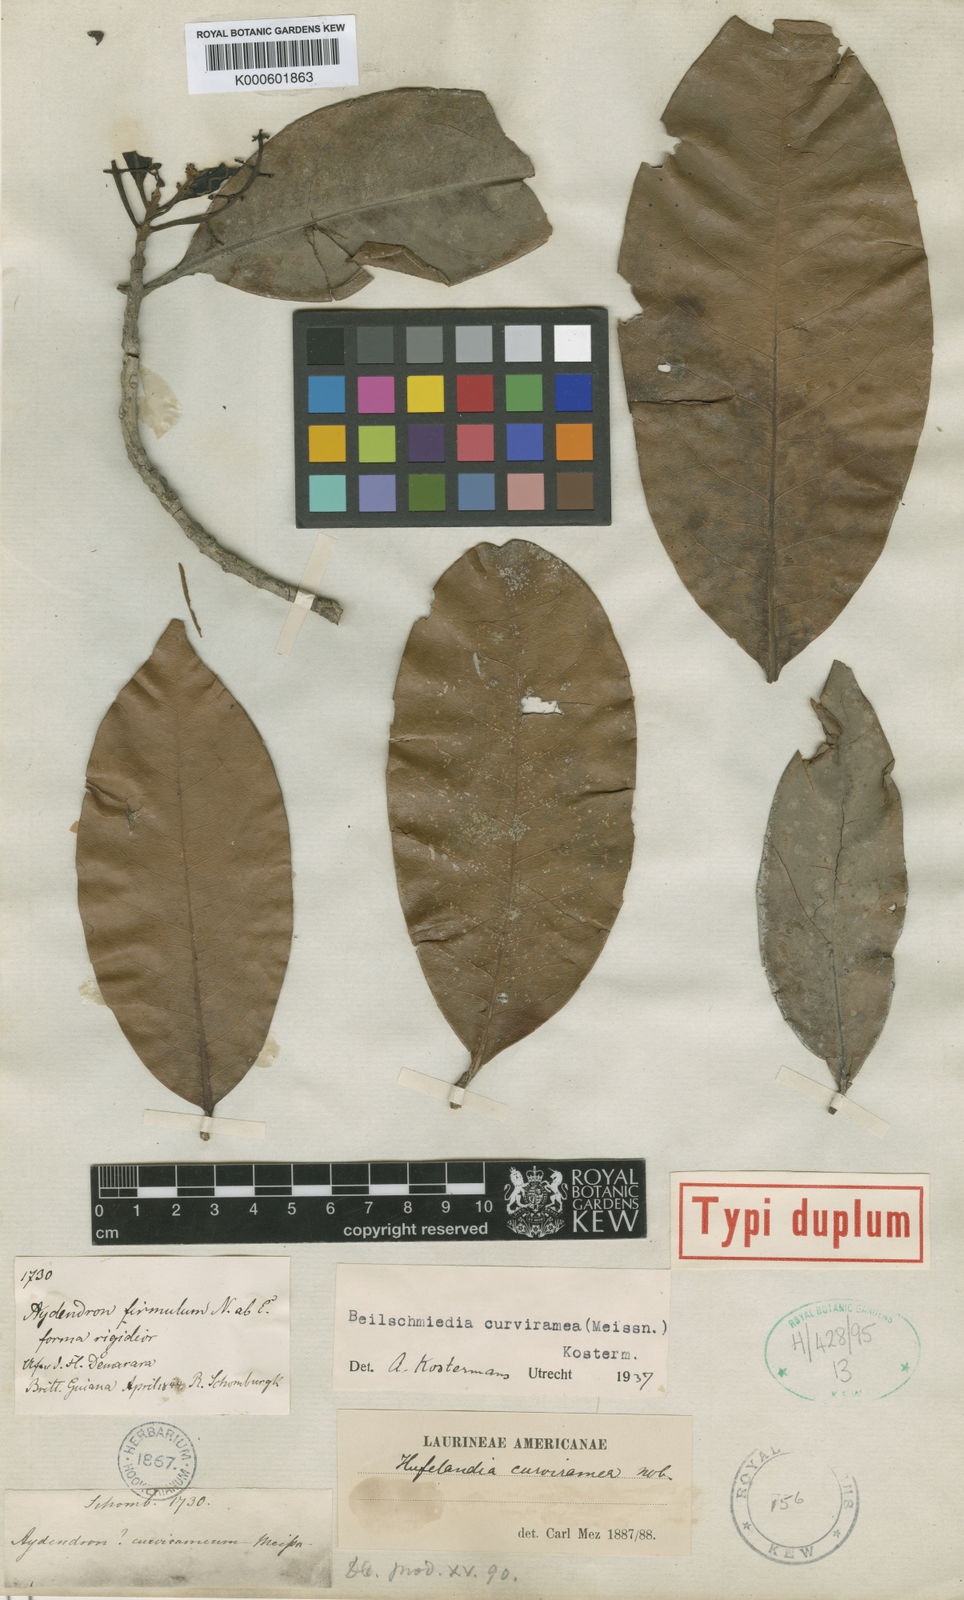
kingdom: Plantae
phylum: Tracheophyta
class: Magnoliopsida
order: Laurales
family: Lauraceae
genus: Beilschmiedia
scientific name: Beilschmiedia curviramea
